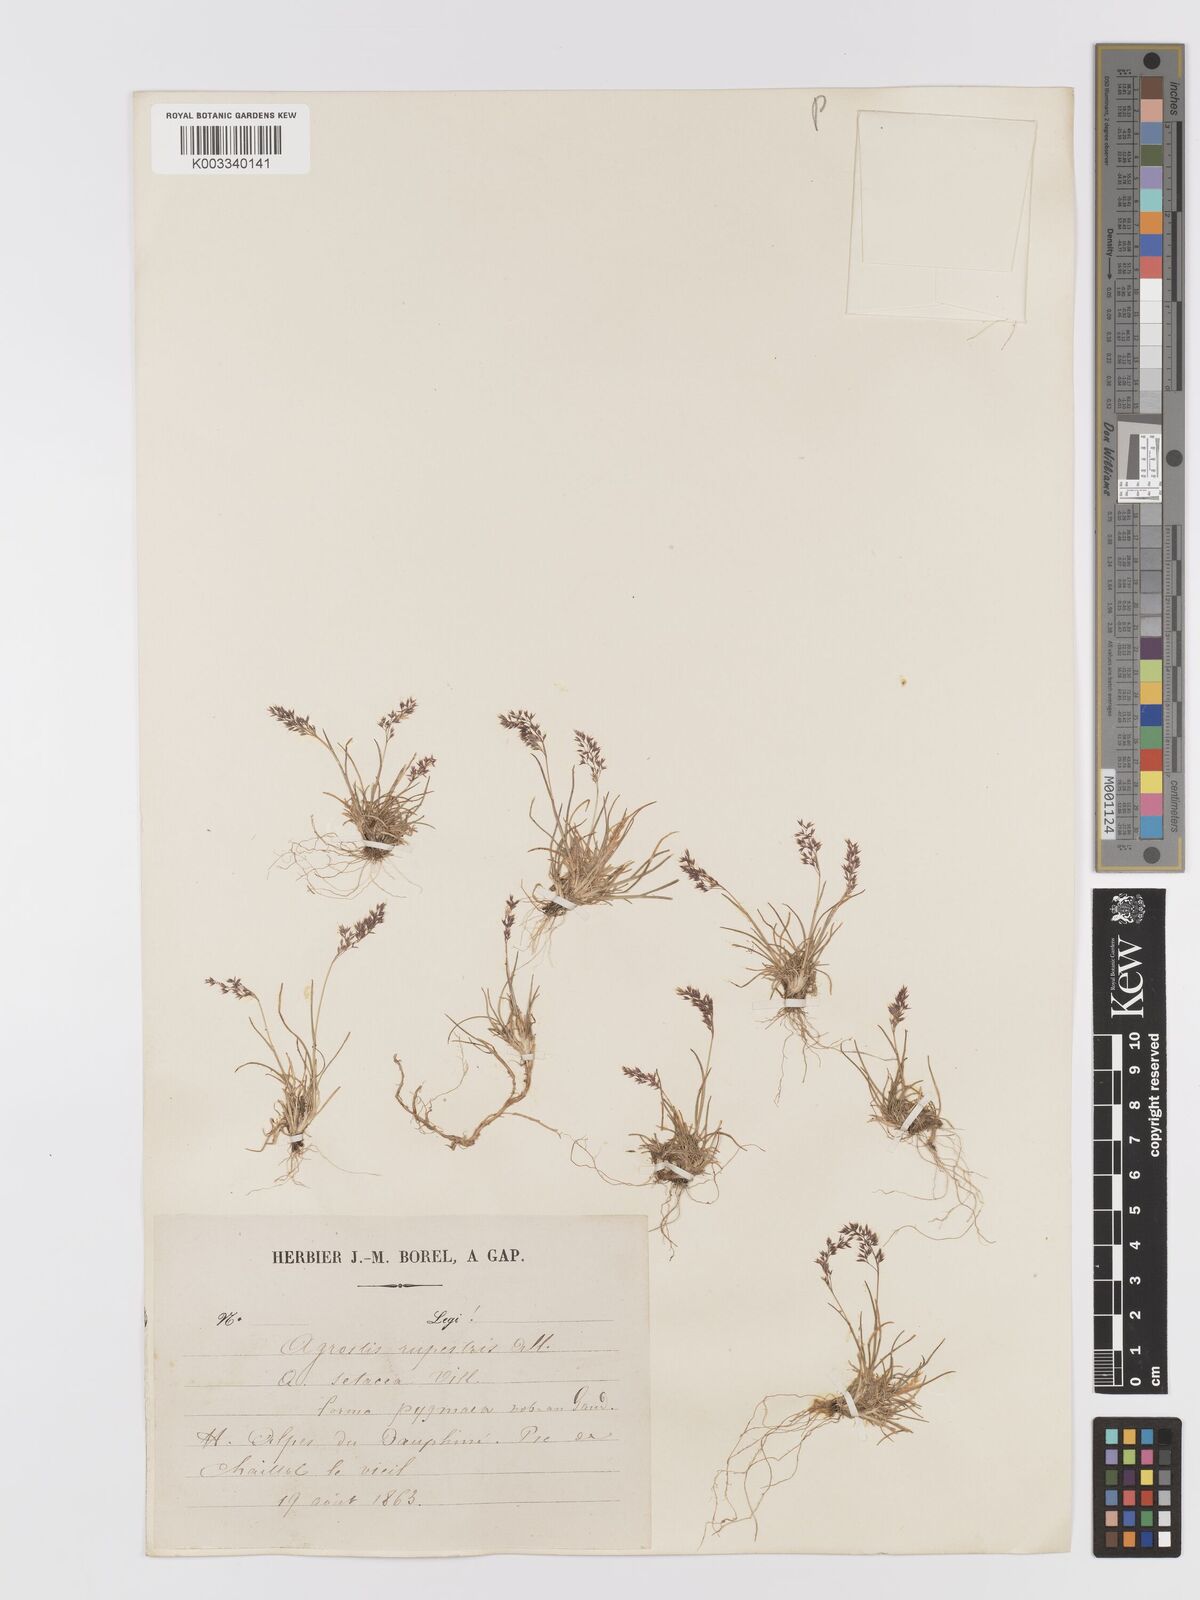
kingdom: Plantae
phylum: Tracheophyta
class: Liliopsida
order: Poales
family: Poaceae
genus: Agrostis
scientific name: Agrostis rupestris
